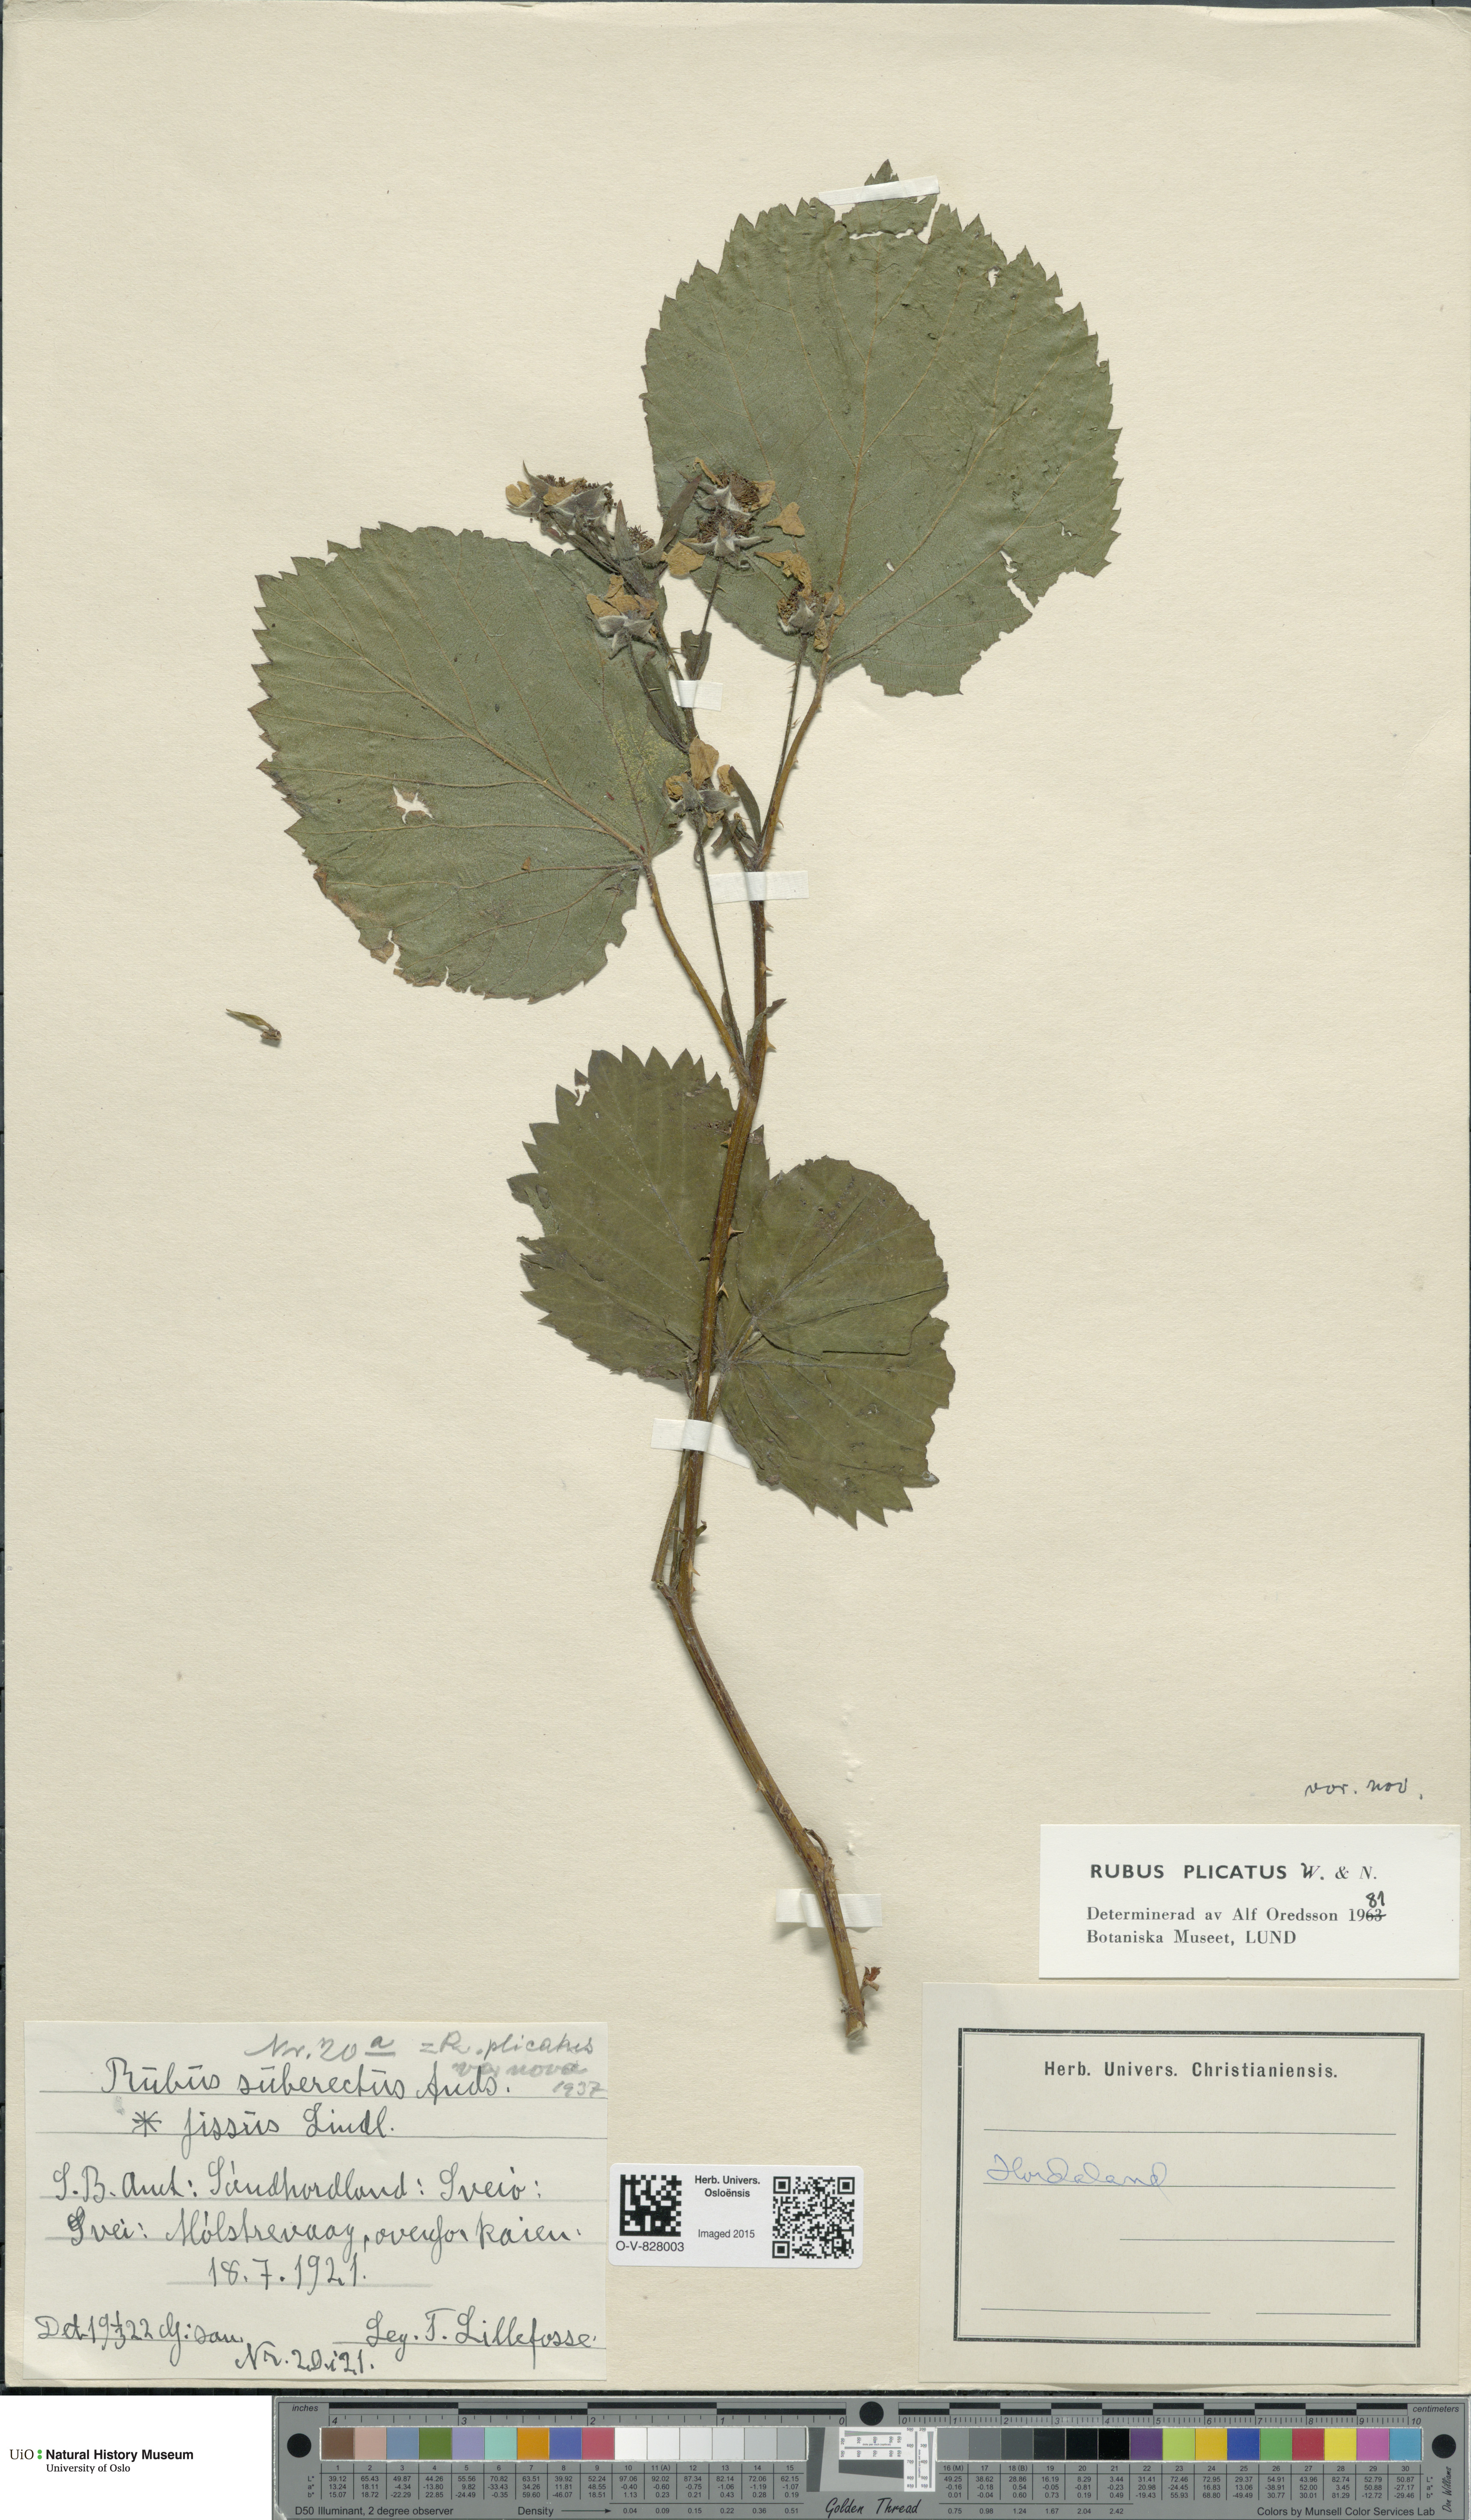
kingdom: Plantae
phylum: Tracheophyta
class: Magnoliopsida
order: Rosales
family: Rosaceae
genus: Rubus
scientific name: Rubus fruticosus
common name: Blackberry, bramble
